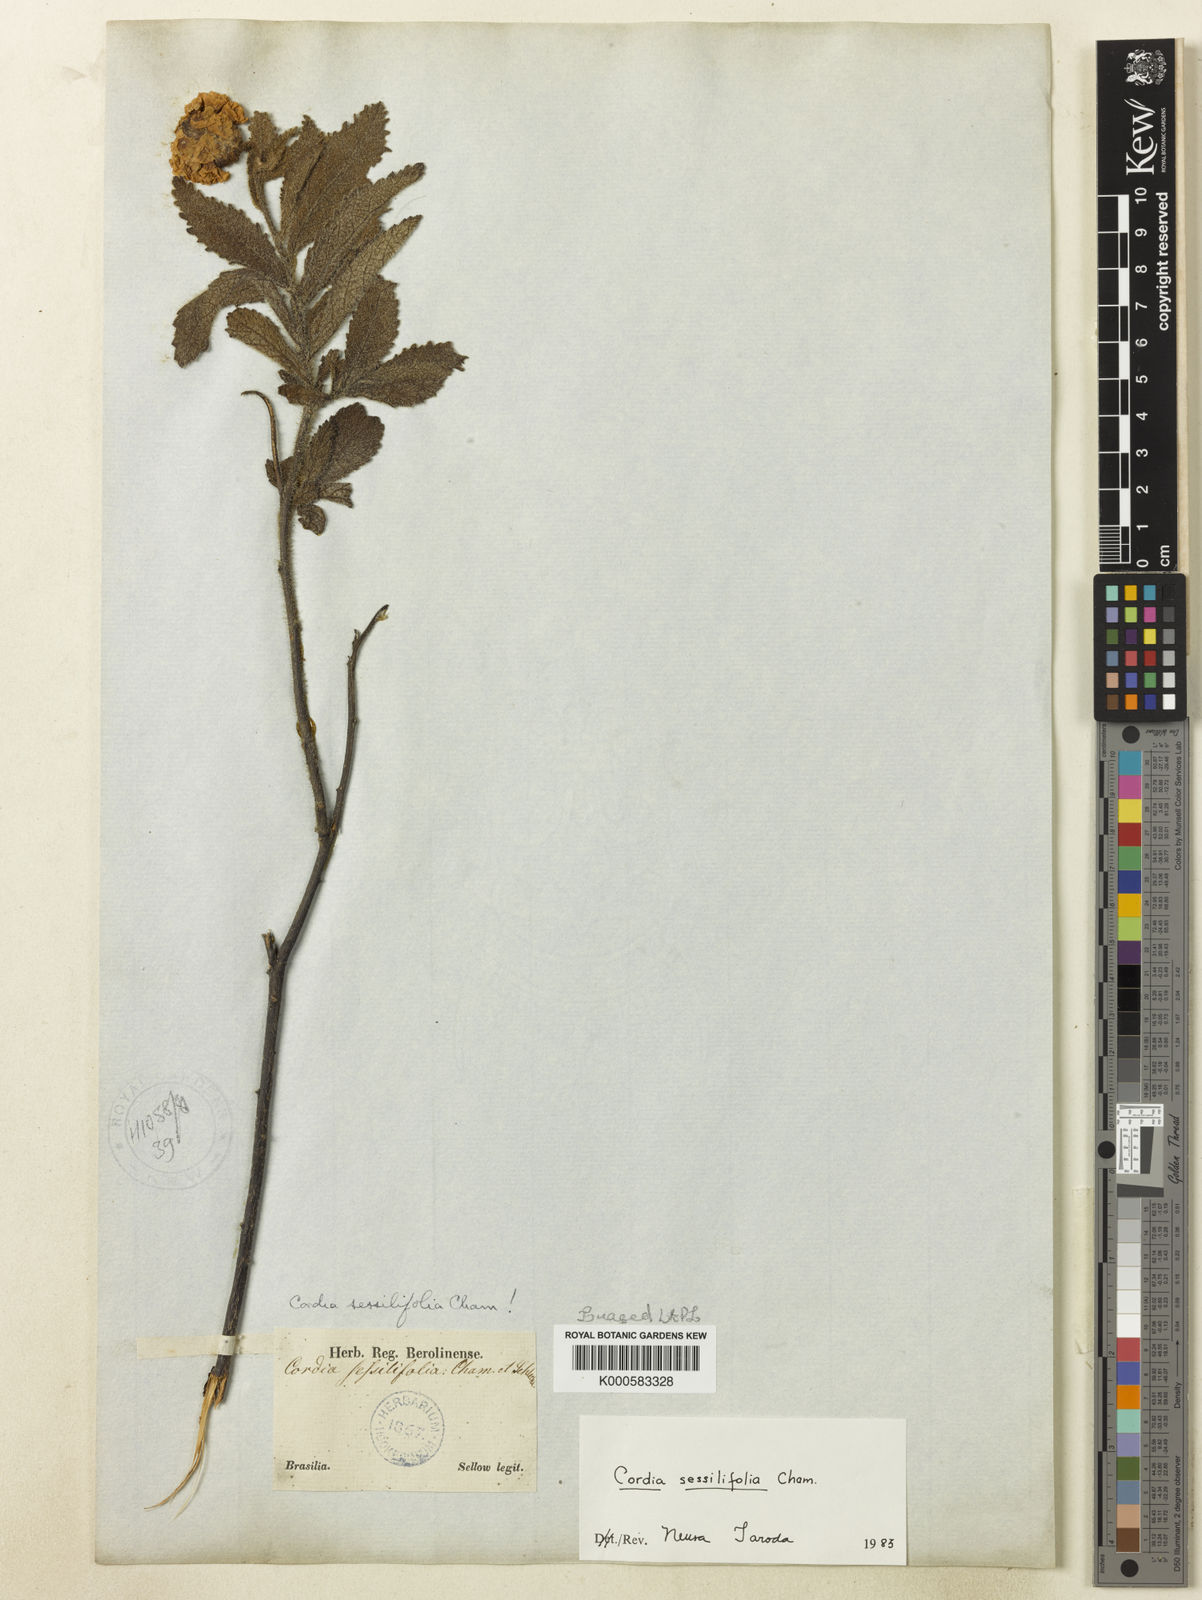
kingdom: Plantae
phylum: Tracheophyta
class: Magnoliopsida
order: Boraginales
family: Cordiaceae
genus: Varronia
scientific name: Varronia sessilifolia
